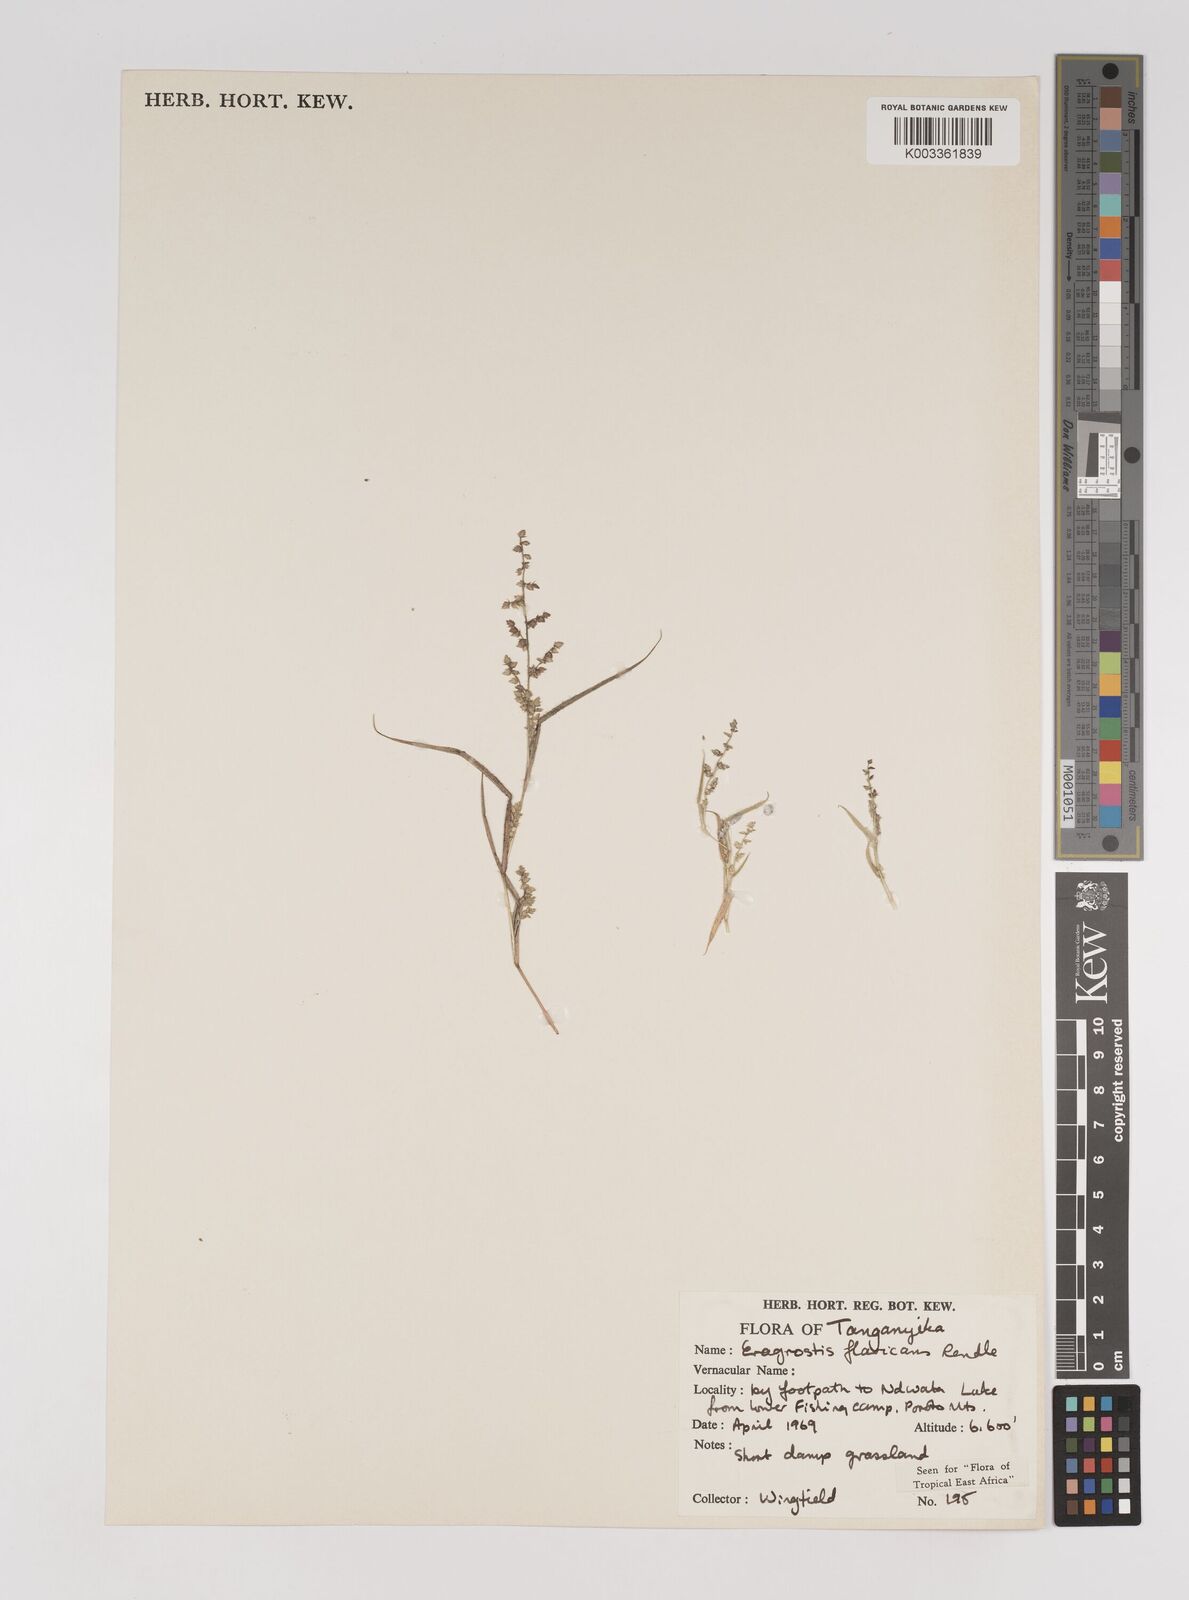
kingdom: Plantae
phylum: Tracheophyta
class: Liliopsida
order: Poales
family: Poaceae
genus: Eragrostis
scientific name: Eragrostis flavicans
